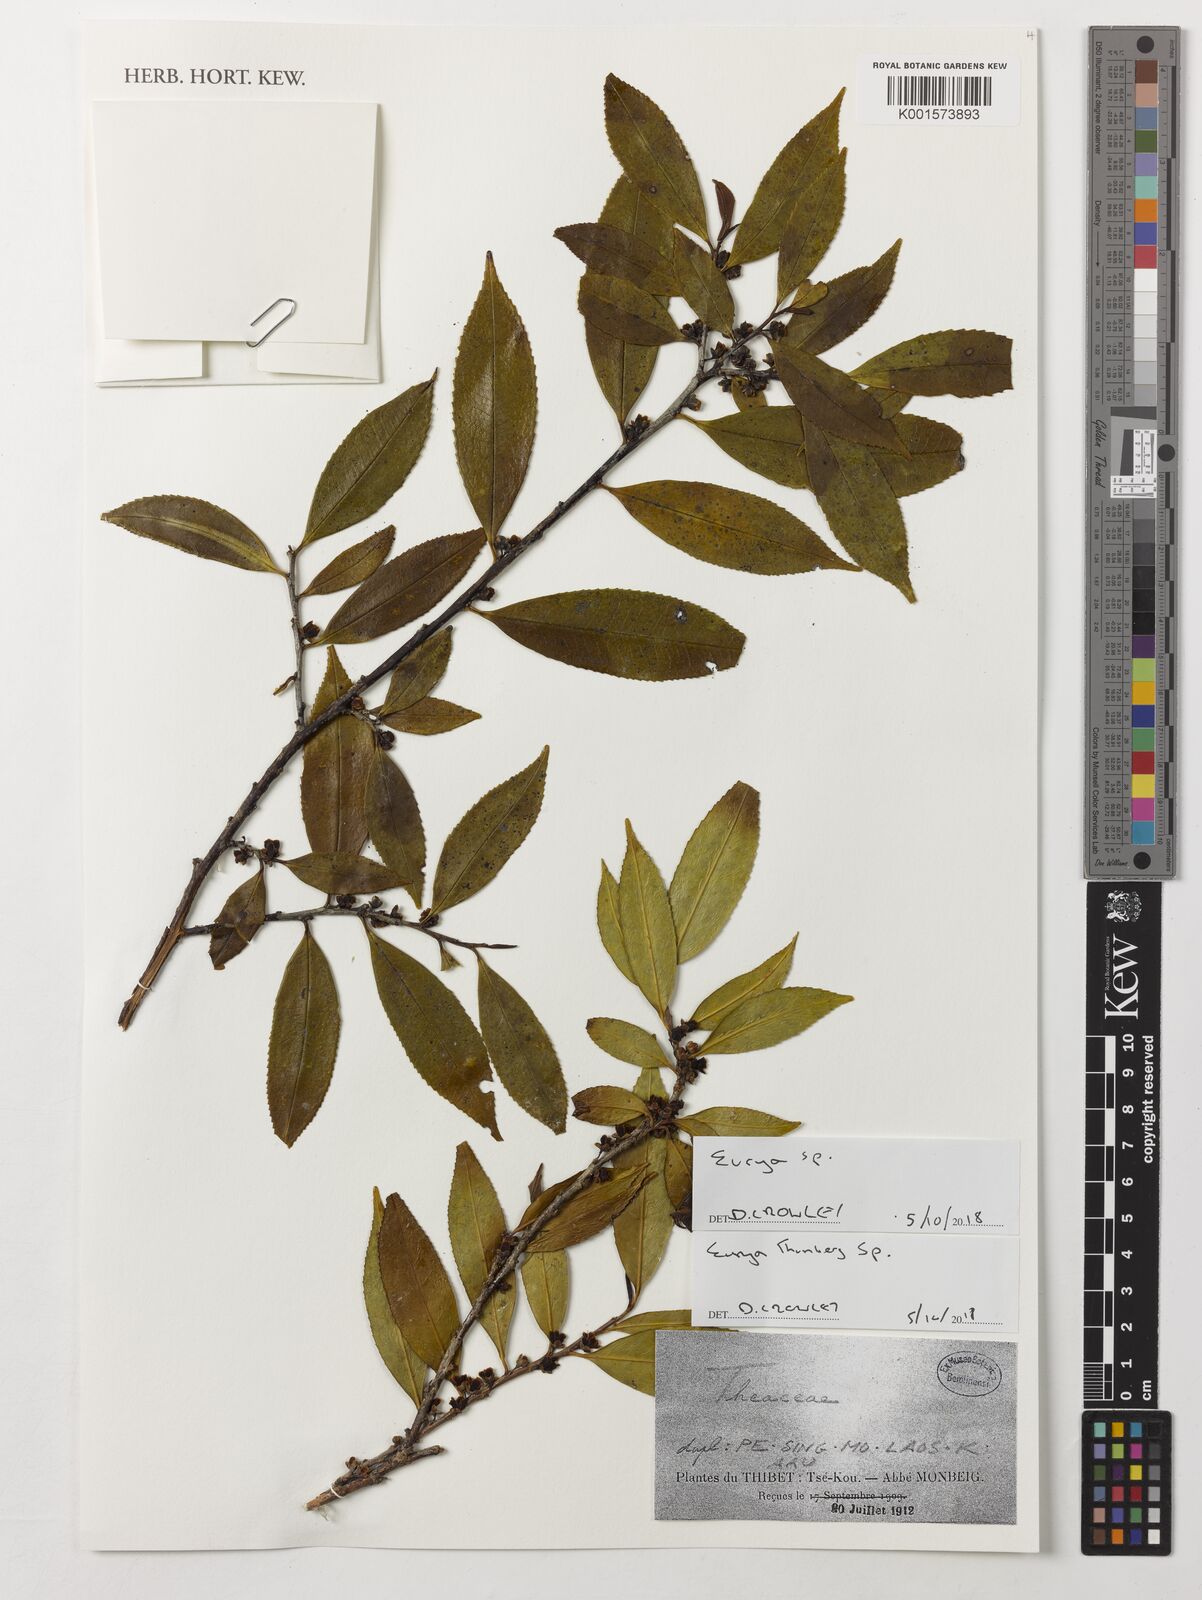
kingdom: Plantae
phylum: Tracheophyta
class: Magnoliopsida
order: Ericales
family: Pentaphylacaceae
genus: Eurya
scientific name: Eurya
